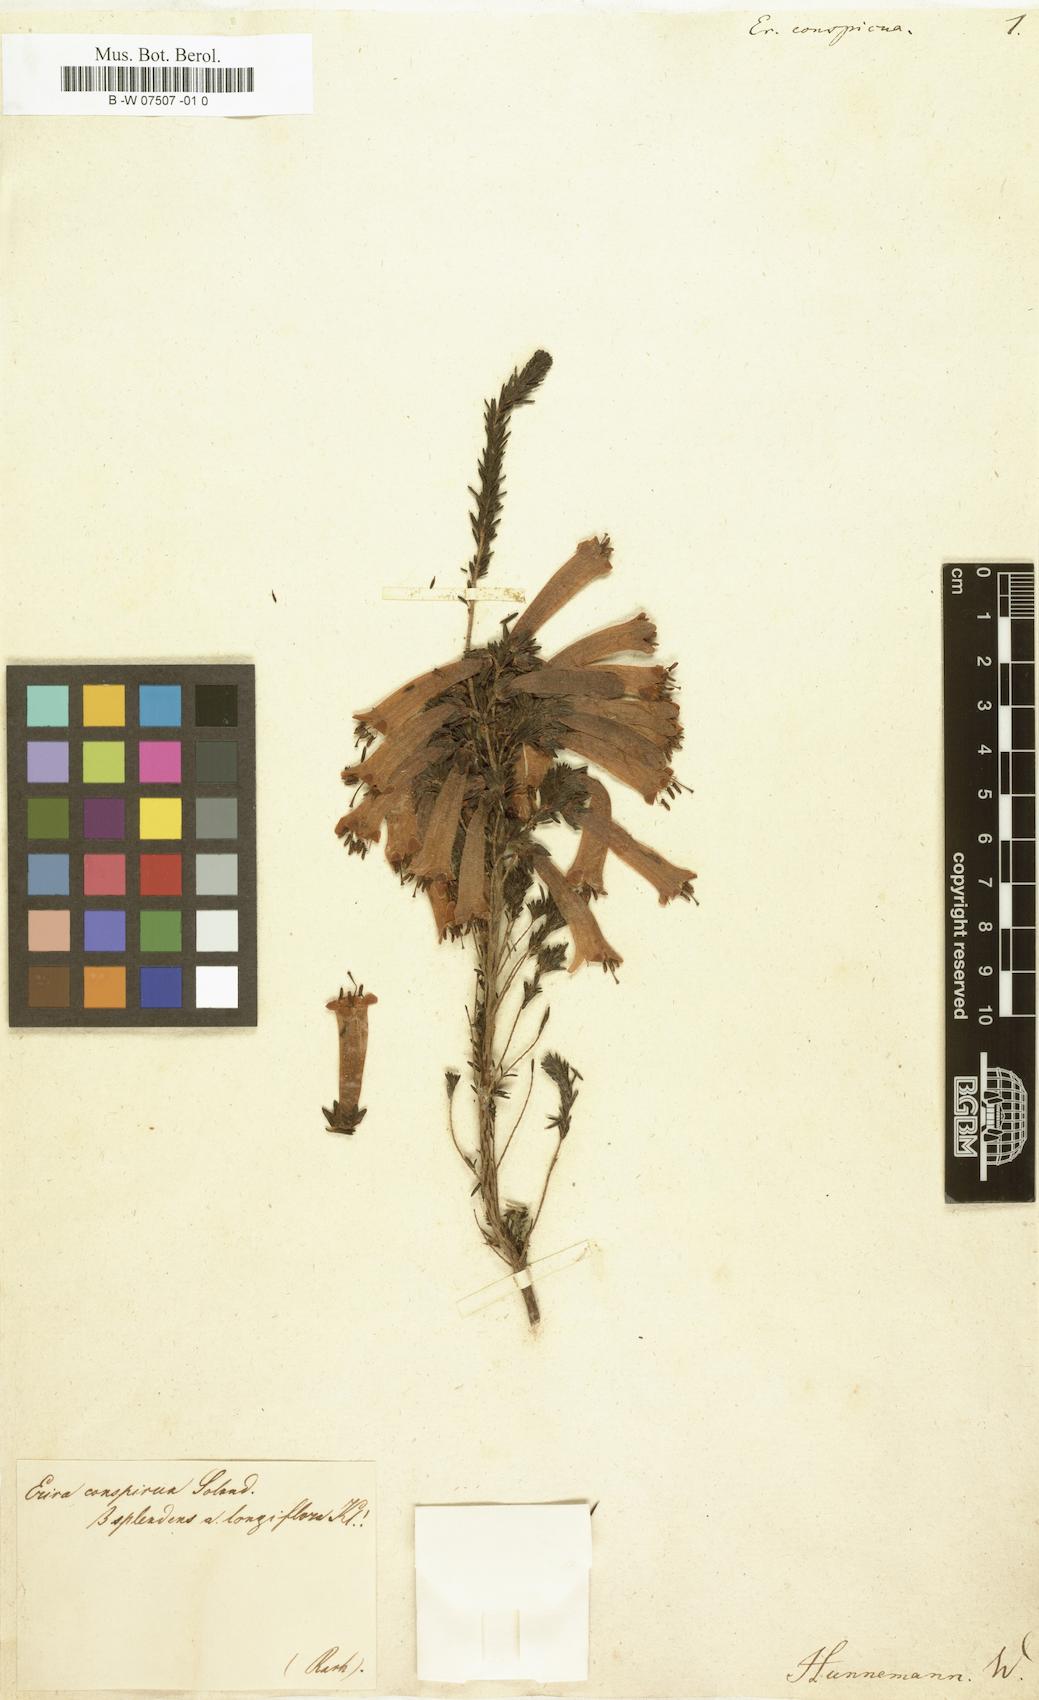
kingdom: Plantae
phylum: Tracheophyta
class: Magnoliopsida
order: Ericales
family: Ericaceae
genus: Erica
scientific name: Erica conspicua
